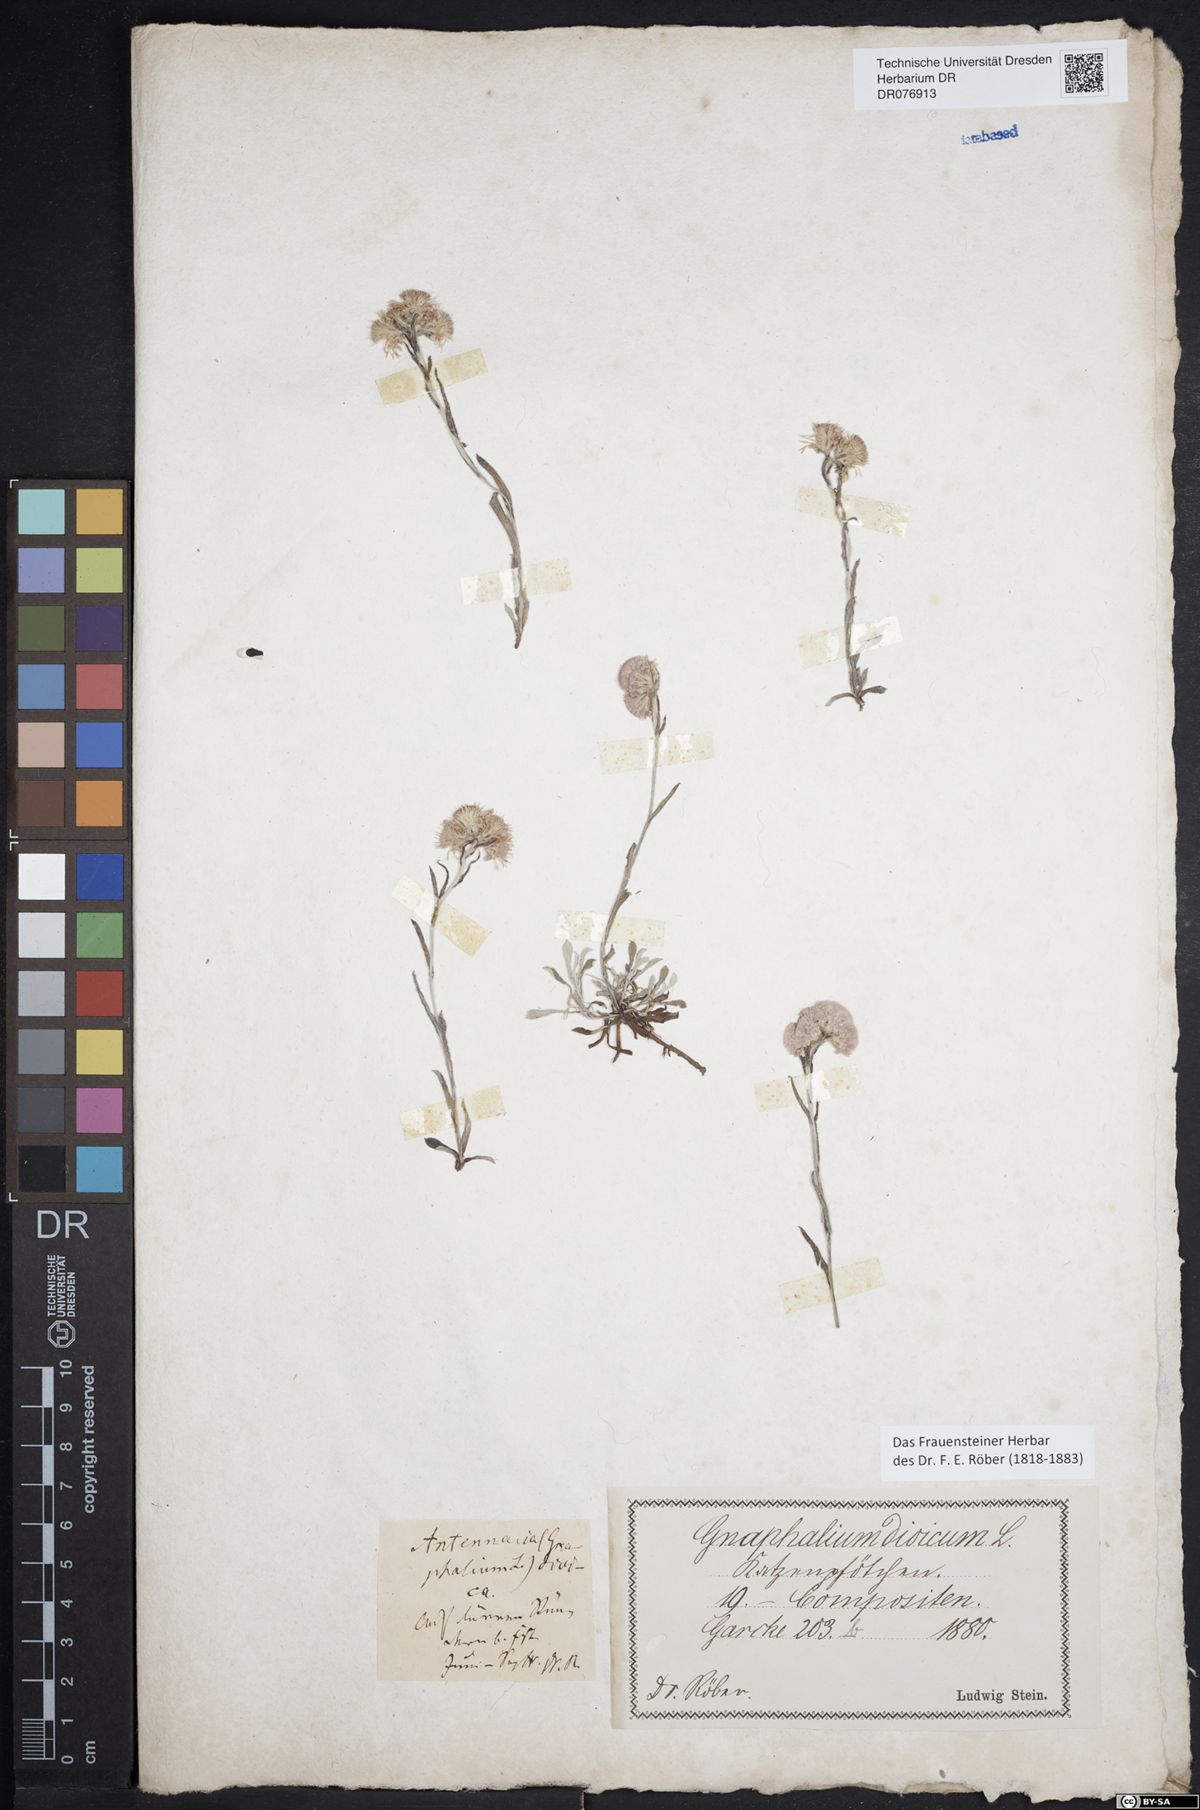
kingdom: Plantae
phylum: Tracheophyta
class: Magnoliopsida
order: Asterales
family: Asteraceae
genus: Antennaria
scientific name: Antennaria dioica
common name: Mountain everlasting
